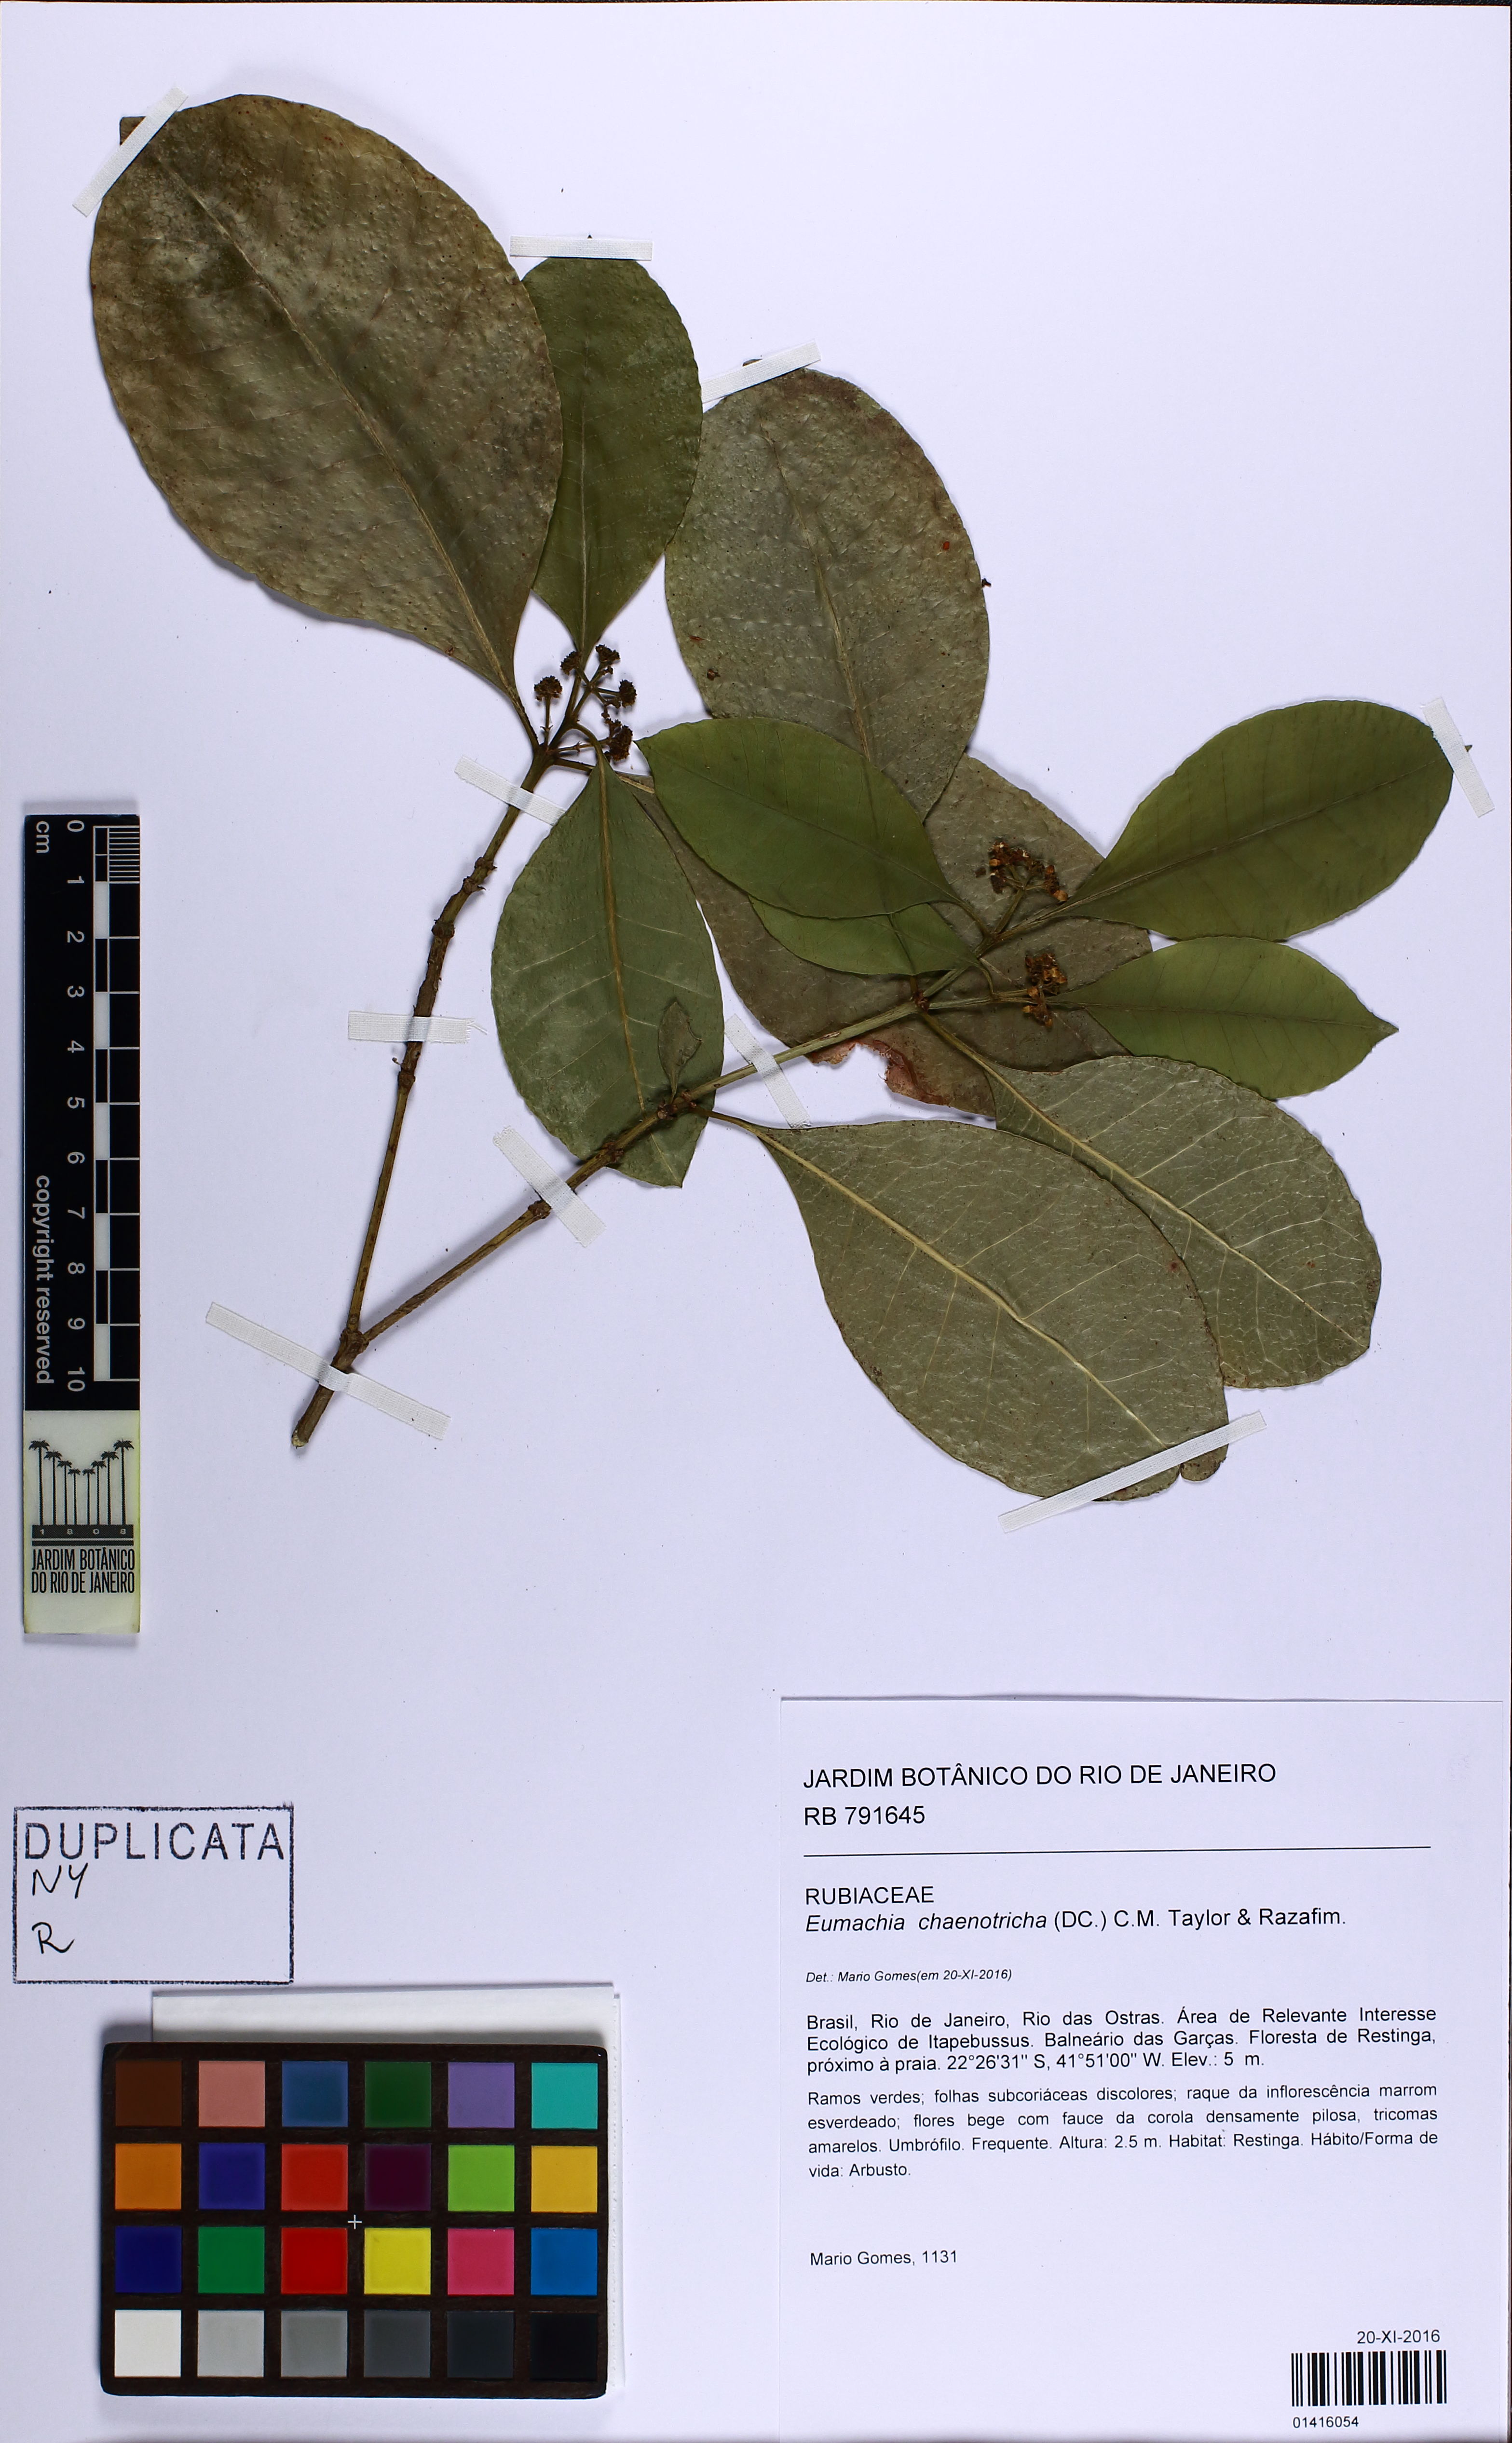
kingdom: Plantae
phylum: Tracheophyta
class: Magnoliopsida
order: Gentianales
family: Rubiaceae
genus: Eumachia
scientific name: Eumachia chaenotricha
